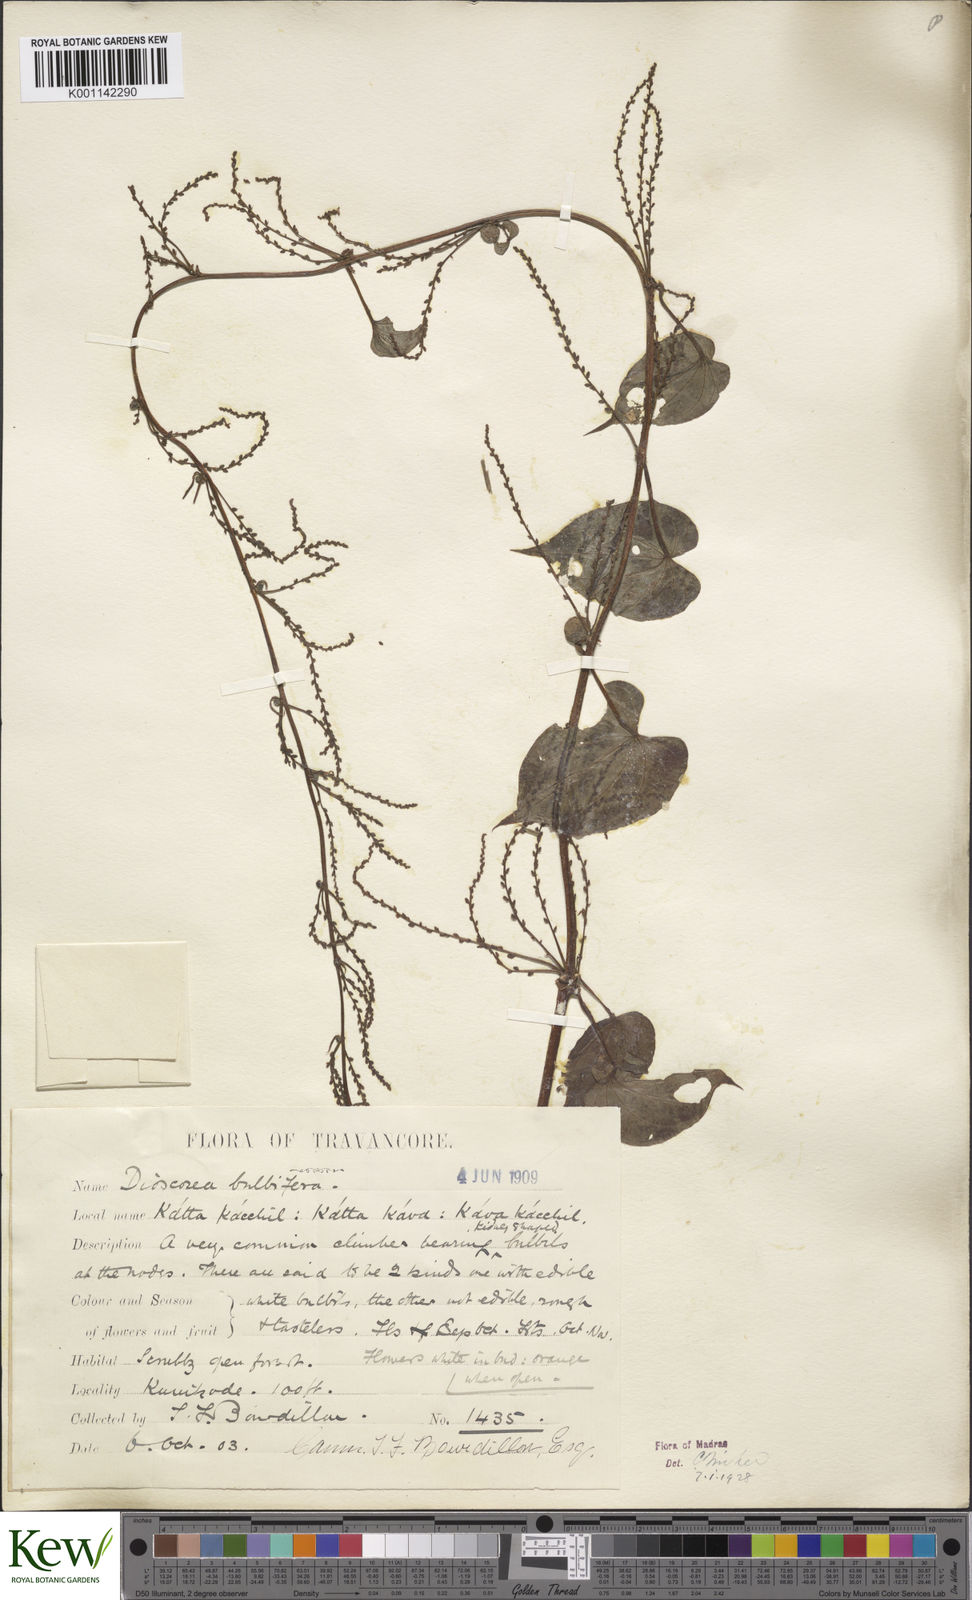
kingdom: Plantae
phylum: Tracheophyta
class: Liliopsida
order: Dioscoreales
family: Dioscoreaceae
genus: Dioscorea
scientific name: Dioscorea bulbifera
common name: Air yam
